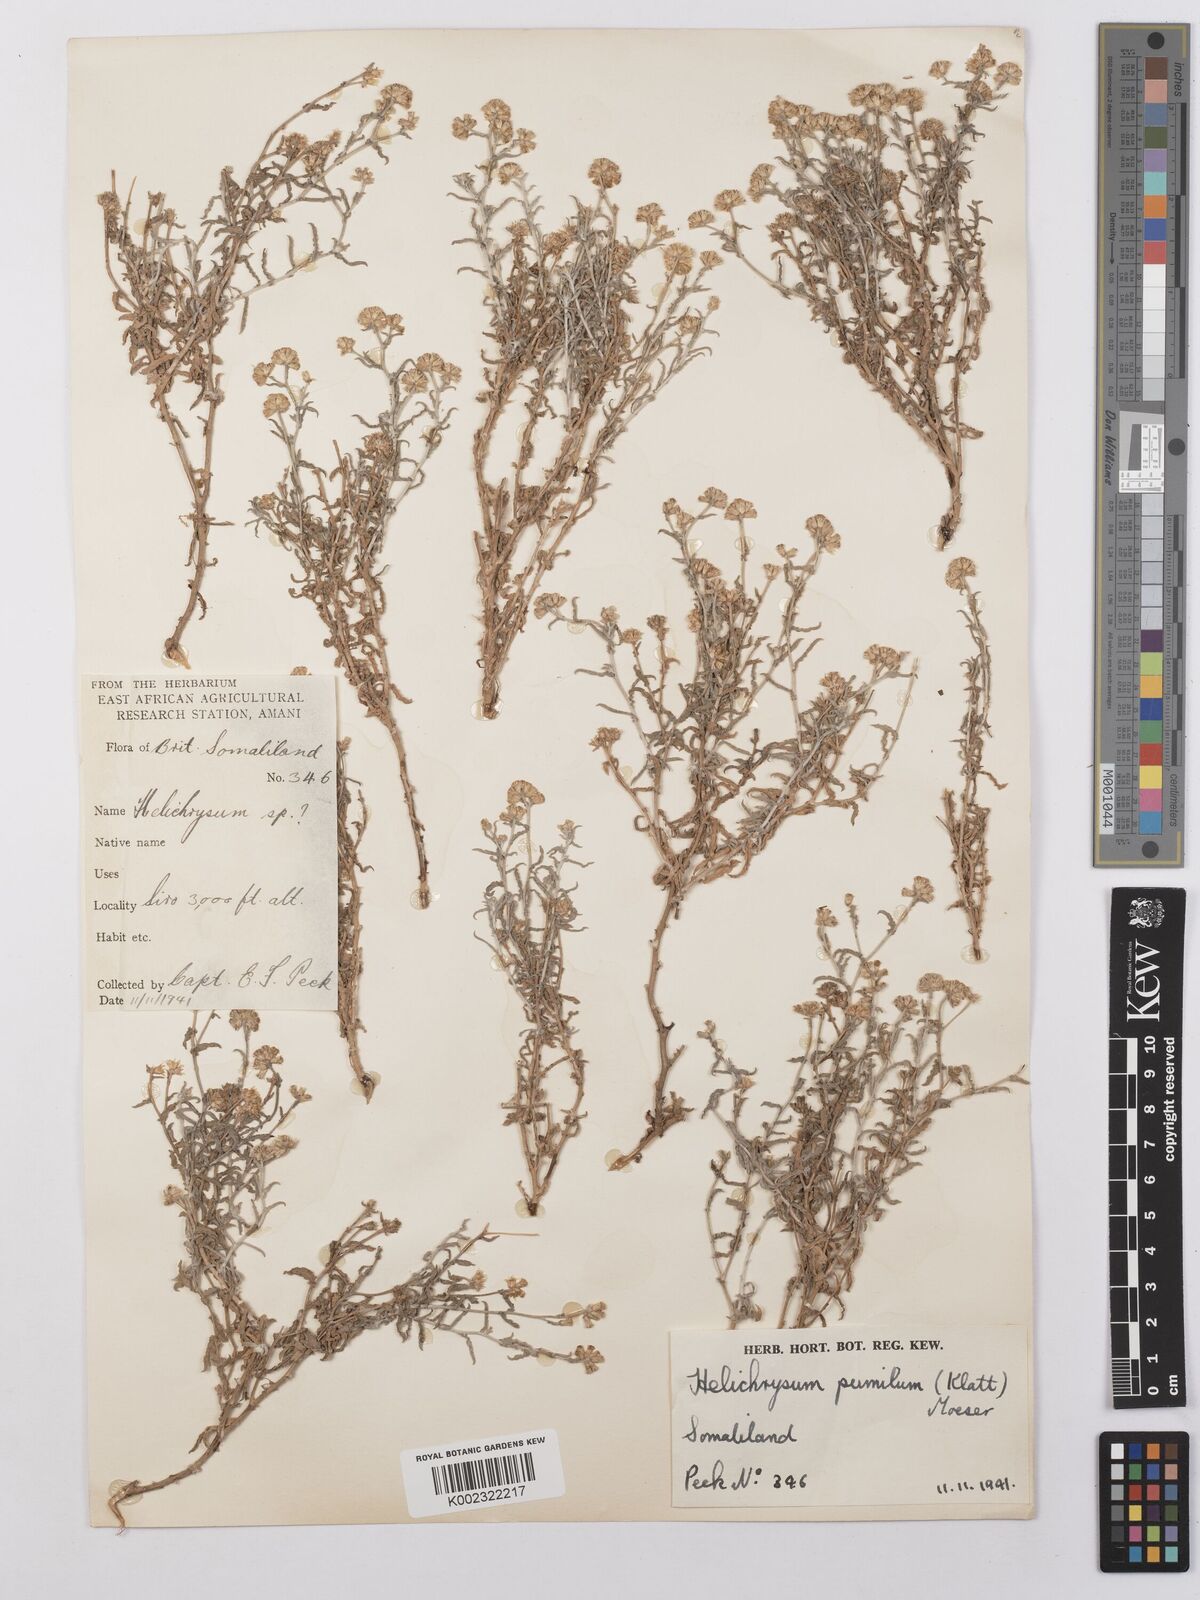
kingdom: Plantae
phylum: Tracheophyta
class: Magnoliopsida
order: Asterales
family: Asteraceae
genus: Helichrysum
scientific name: Helichrysum pumilum
